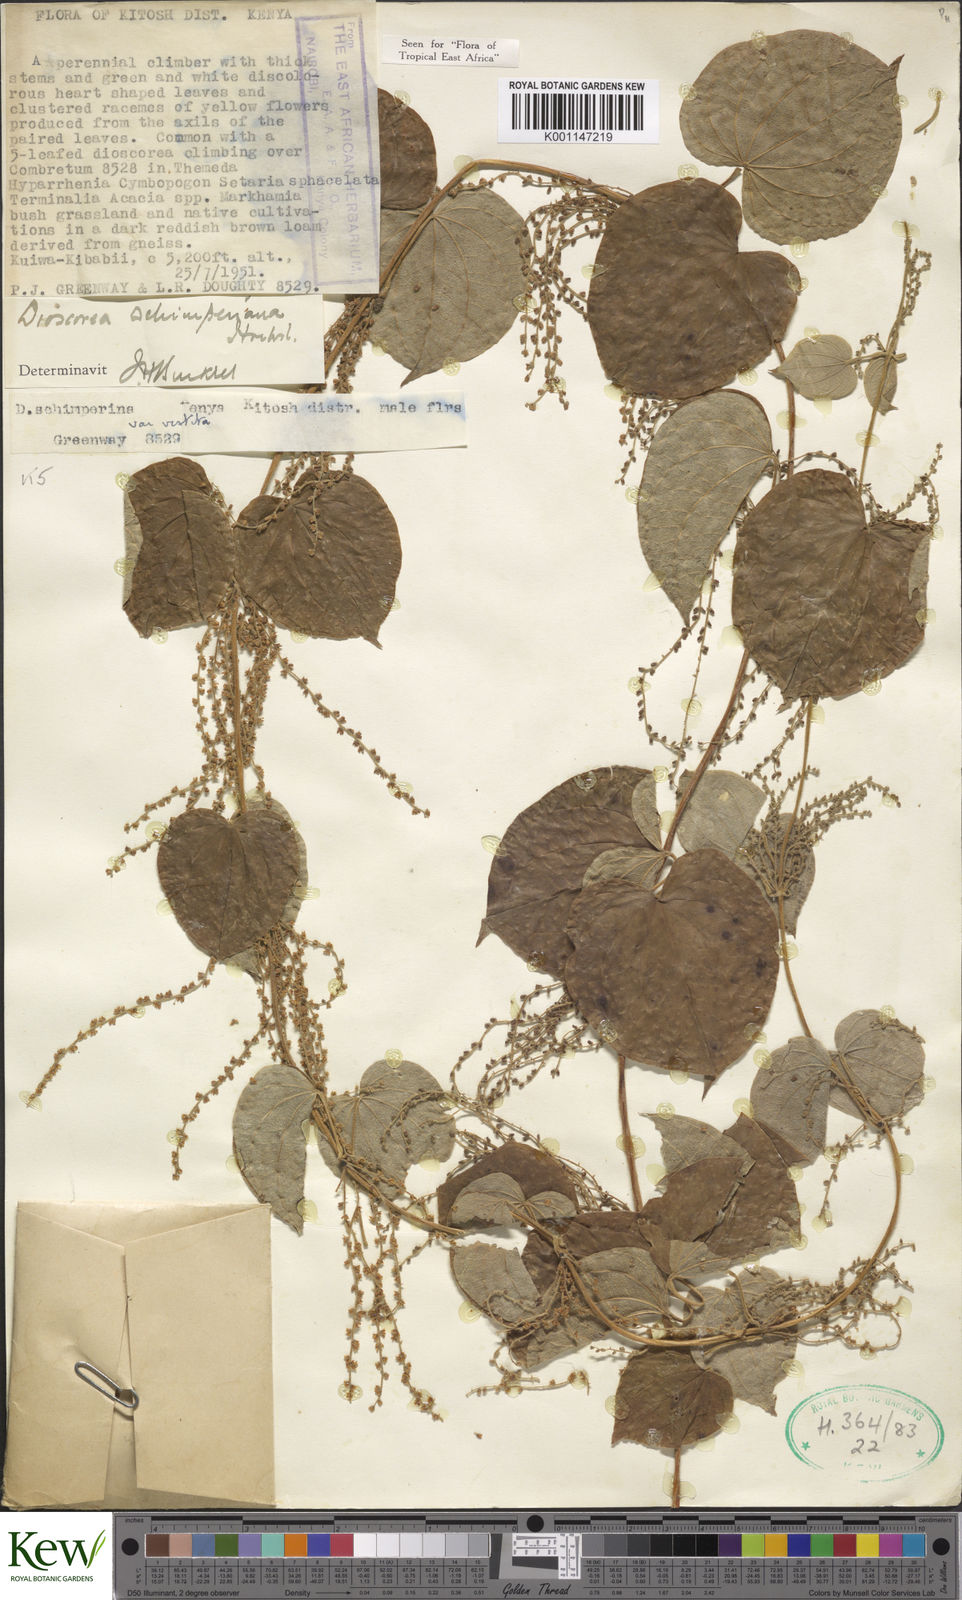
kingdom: Plantae
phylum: Tracheophyta
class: Liliopsida
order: Dioscoreales
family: Dioscoreaceae
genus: Dioscorea
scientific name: Dioscorea schimperiana
